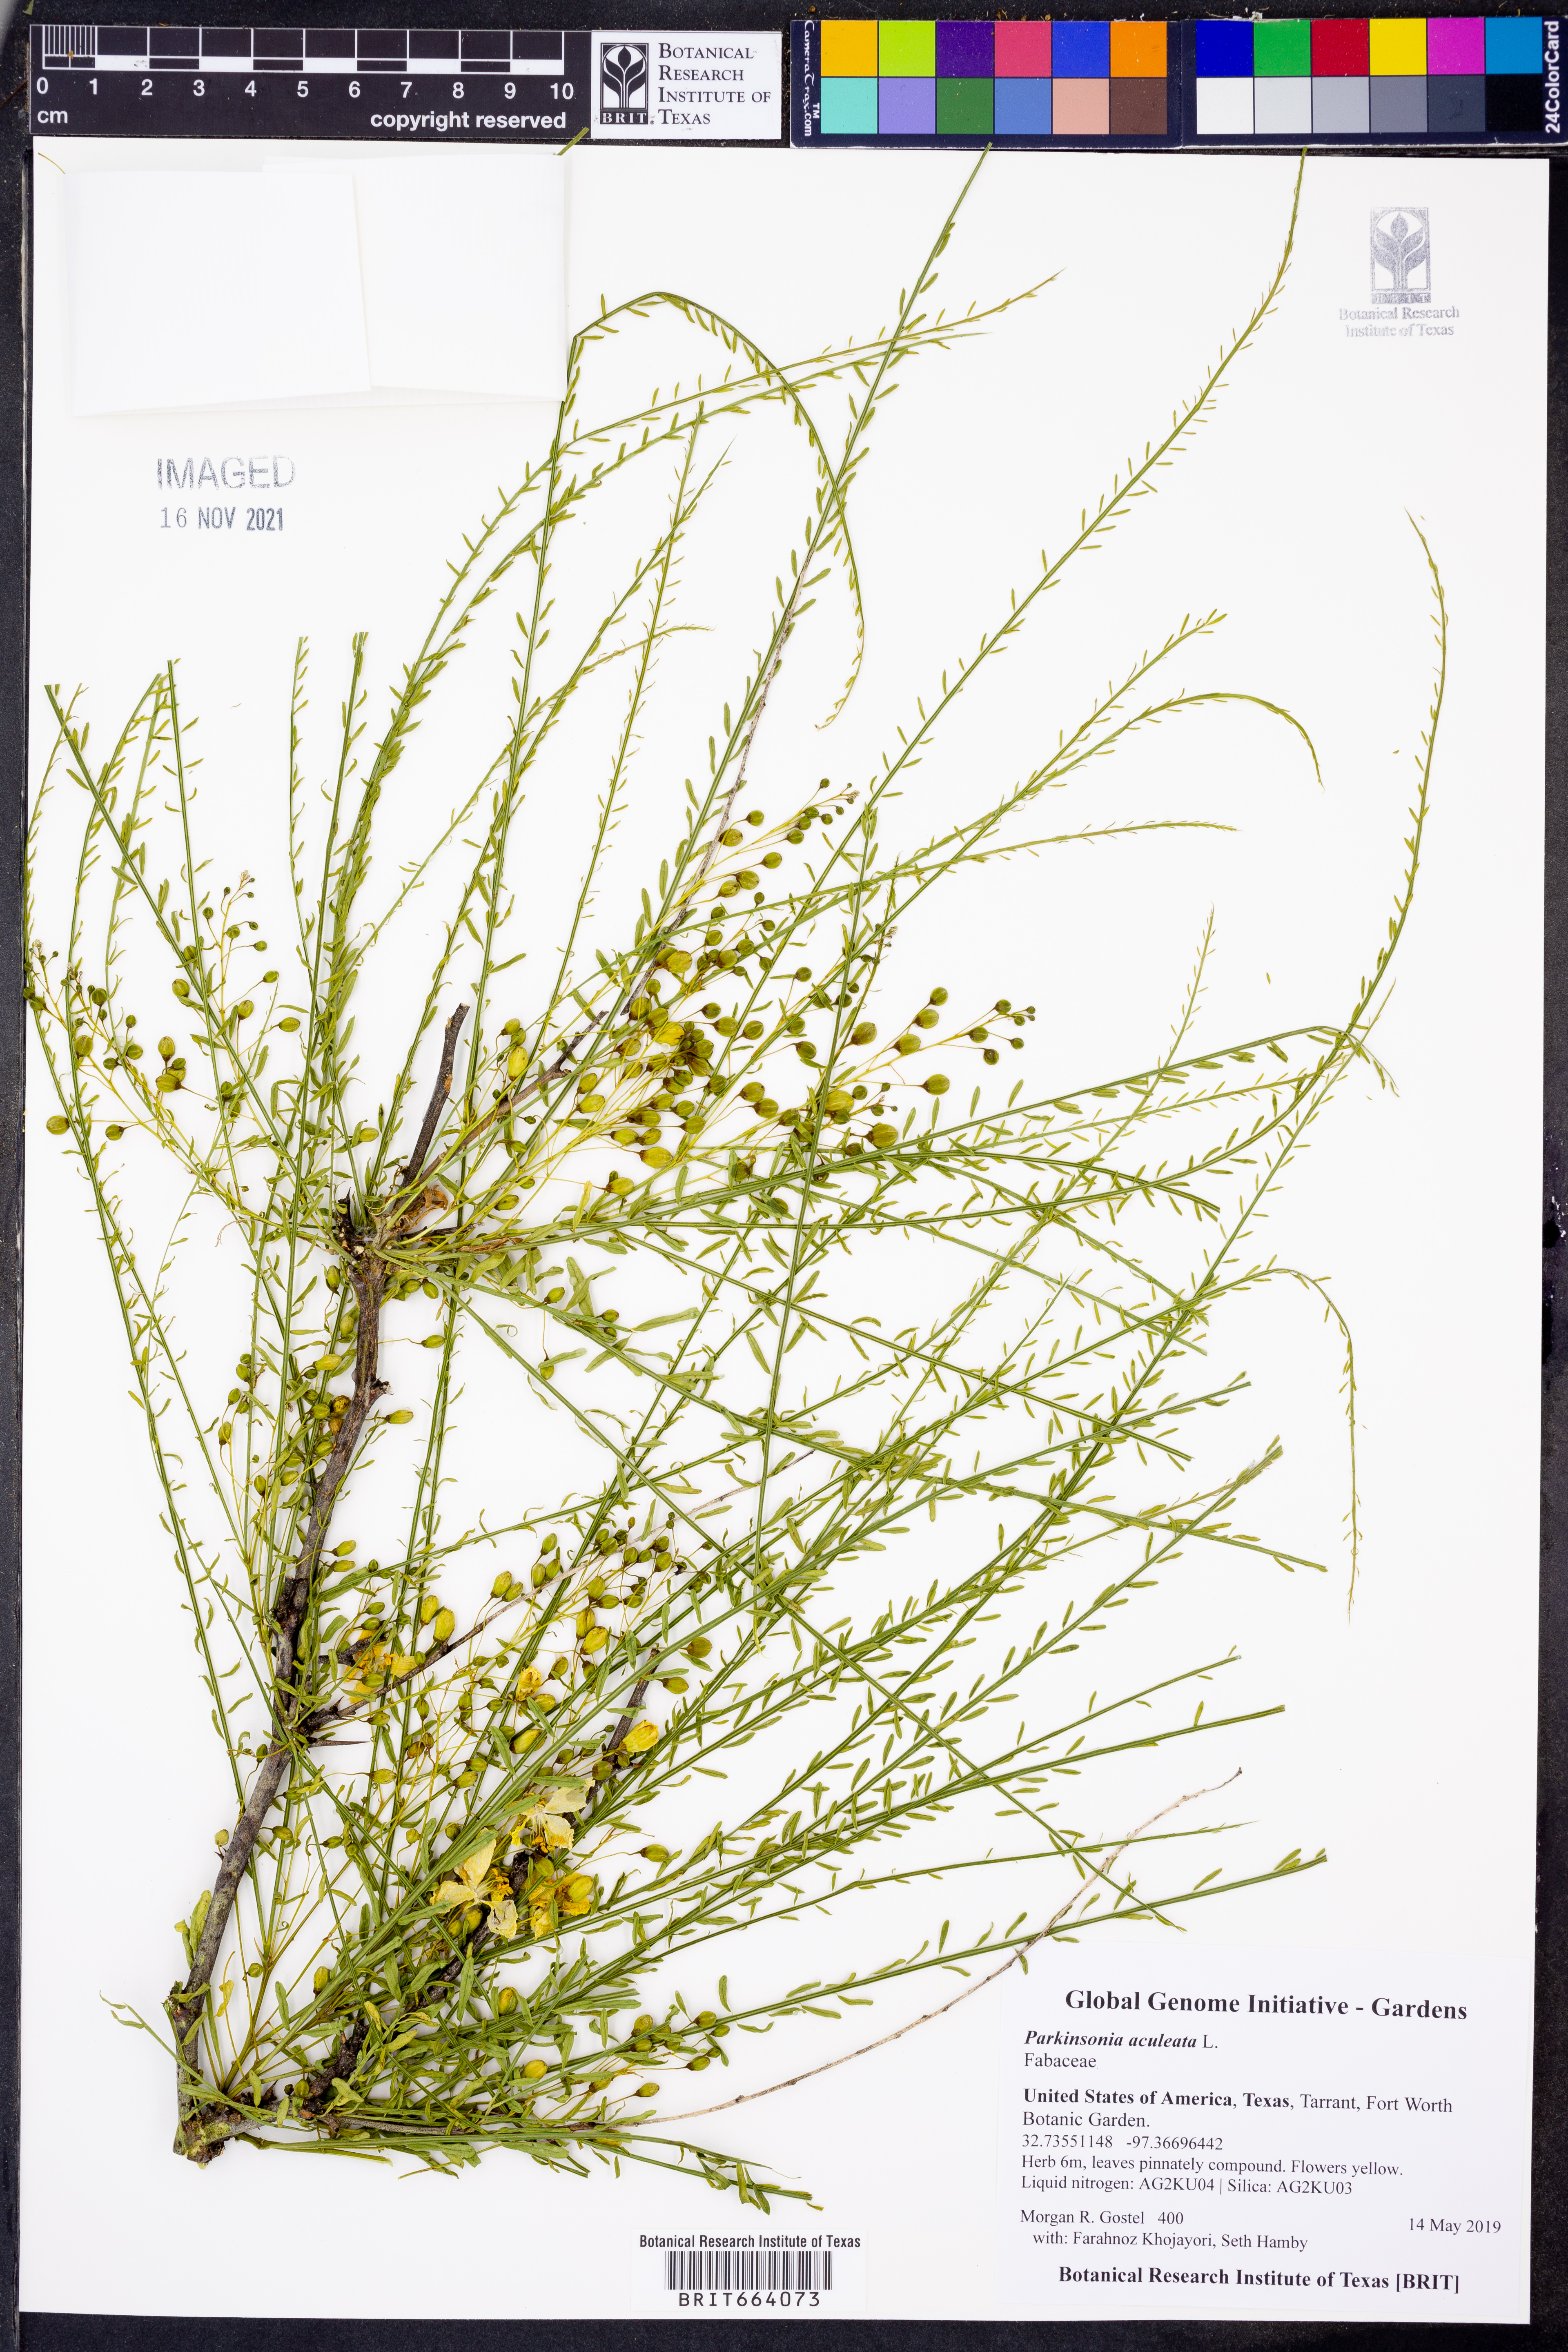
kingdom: Plantae
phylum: Tracheophyta
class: Magnoliopsida
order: Fabales
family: Fabaceae
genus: Parkinsonia
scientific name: Parkinsonia aculeata
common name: Jerusalem thorn
